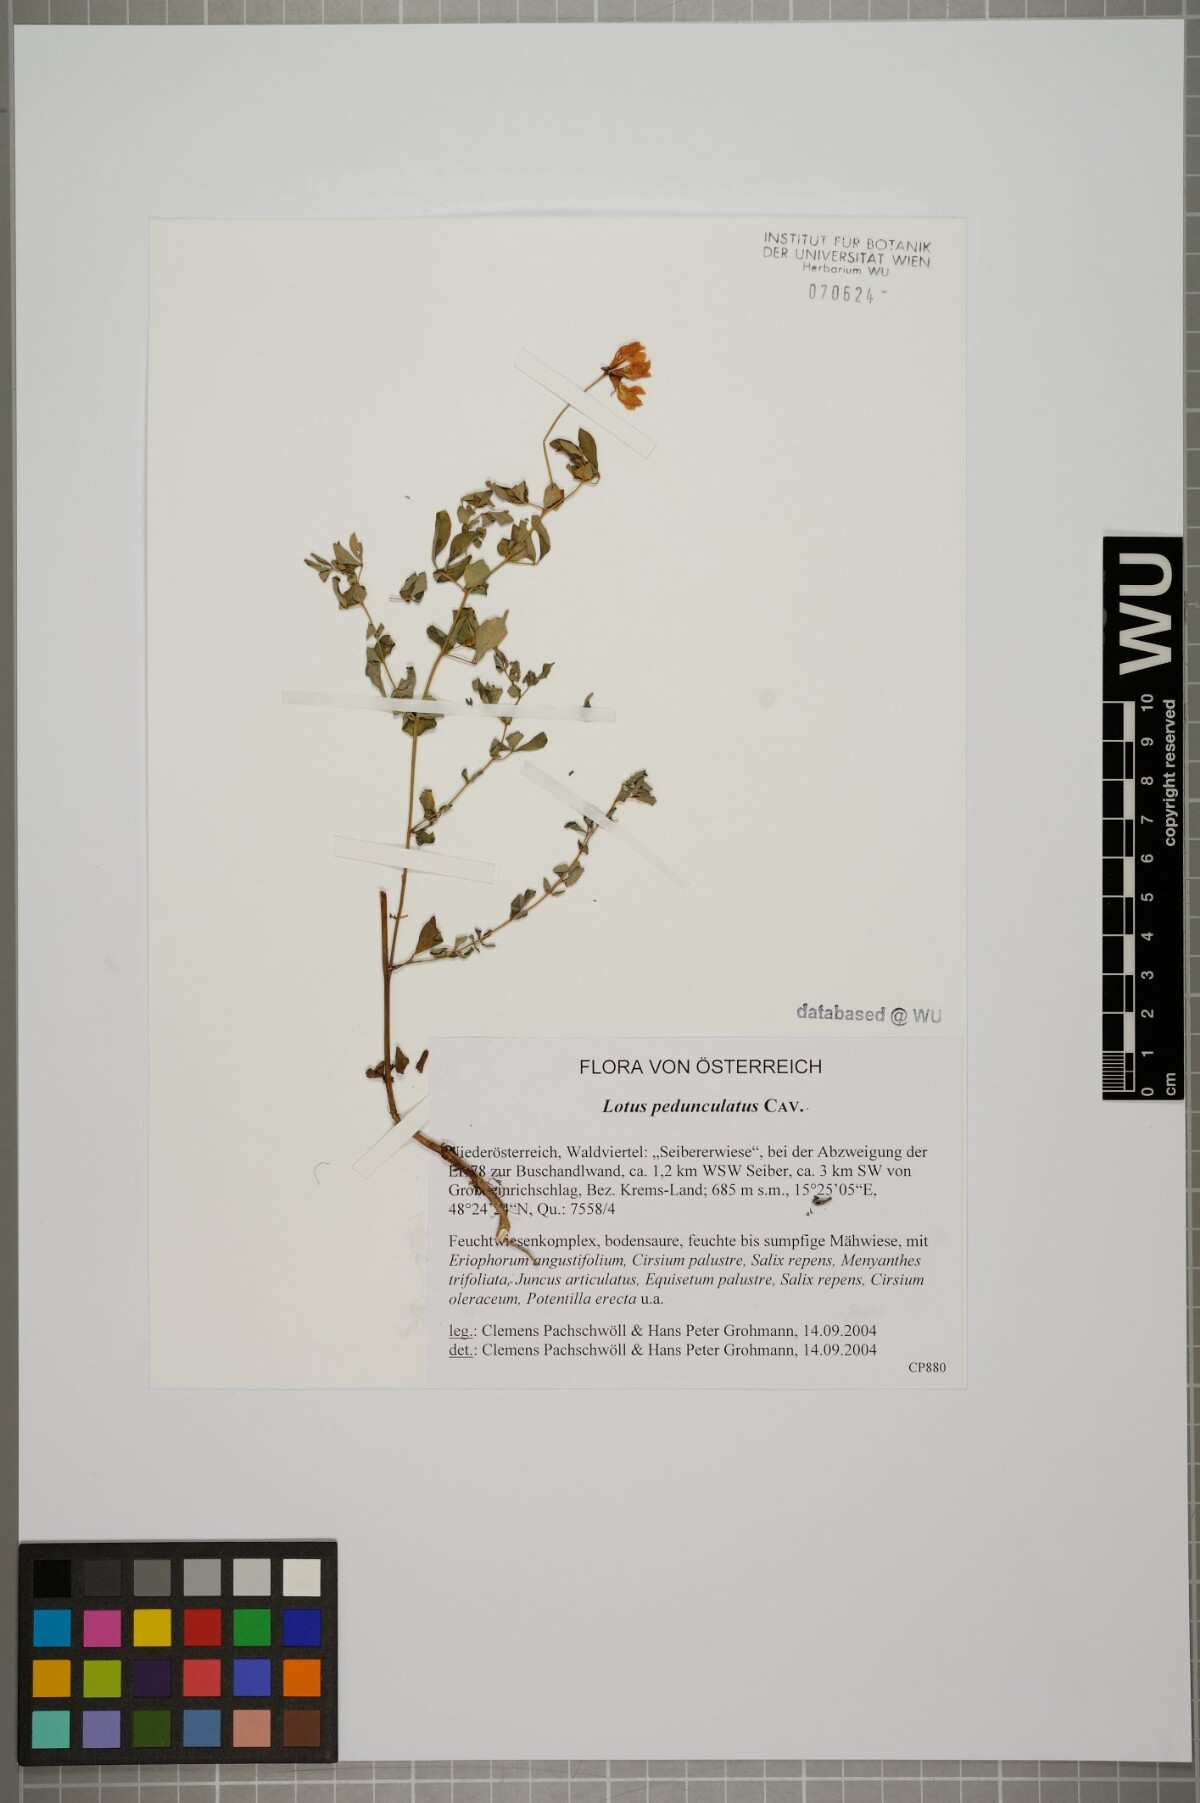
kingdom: Plantae
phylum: Tracheophyta
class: Magnoliopsida
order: Fabales
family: Fabaceae
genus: Lotus
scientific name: Lotus pedunculatus
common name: Greater birdsfoot-trefoil
